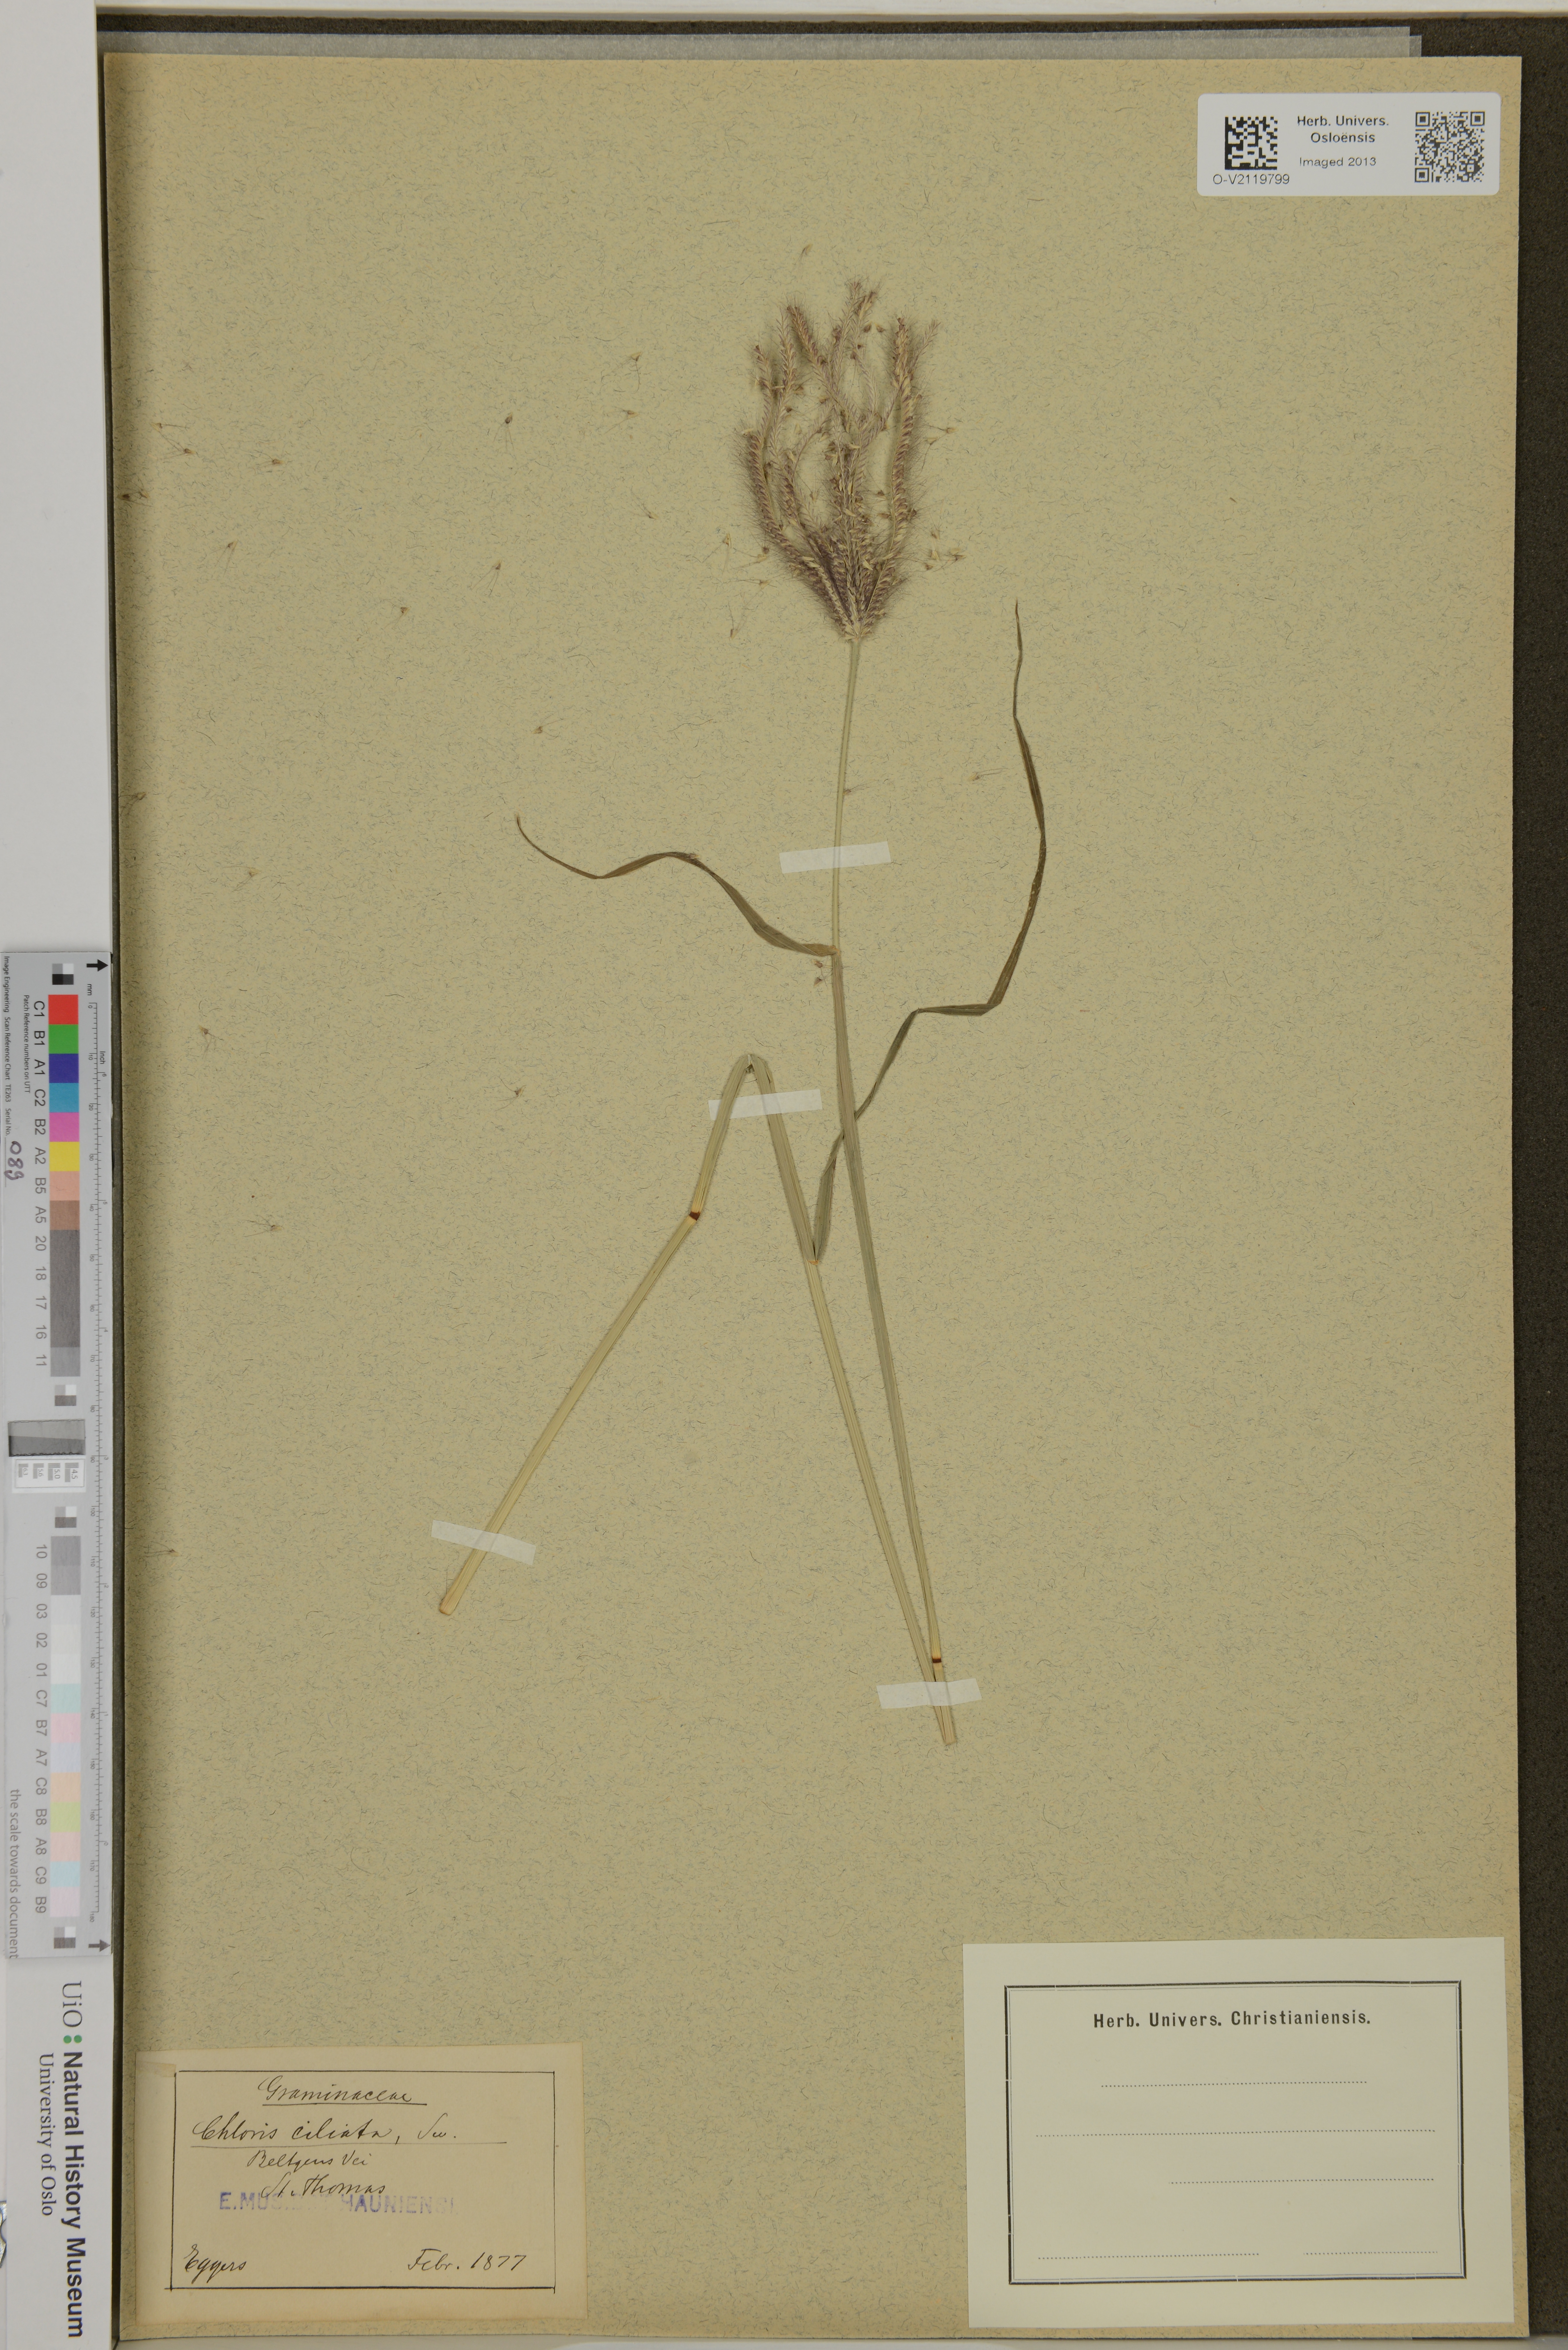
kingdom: Plantae
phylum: Tracheophyta
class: Liliopsida
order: Poales
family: Poaceae
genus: Stapfochloa
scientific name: Stapfochloa ciliata
